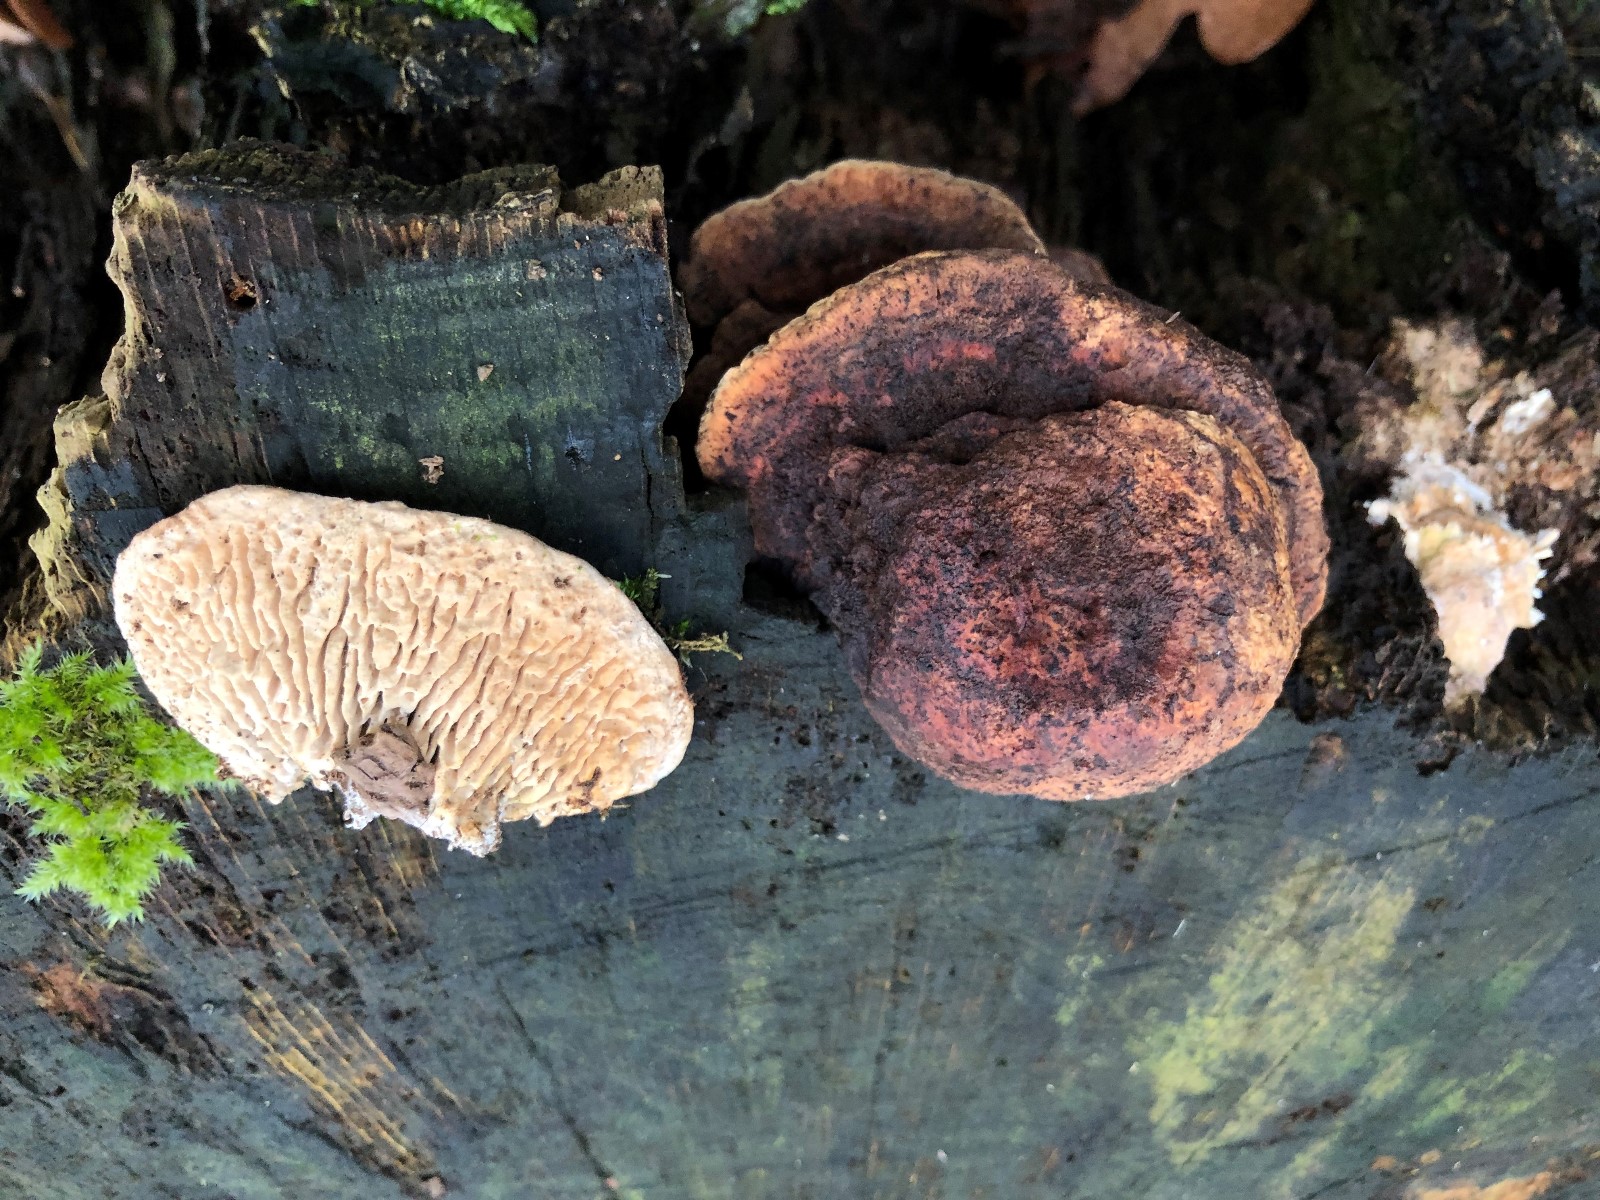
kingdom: Fungi
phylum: Basidiomycota
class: Agaricomycetes
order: Polyporales
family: Fomitopsidaceae
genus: Daedalea
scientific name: Daedalea quercina
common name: ege-labyrintsvamp
